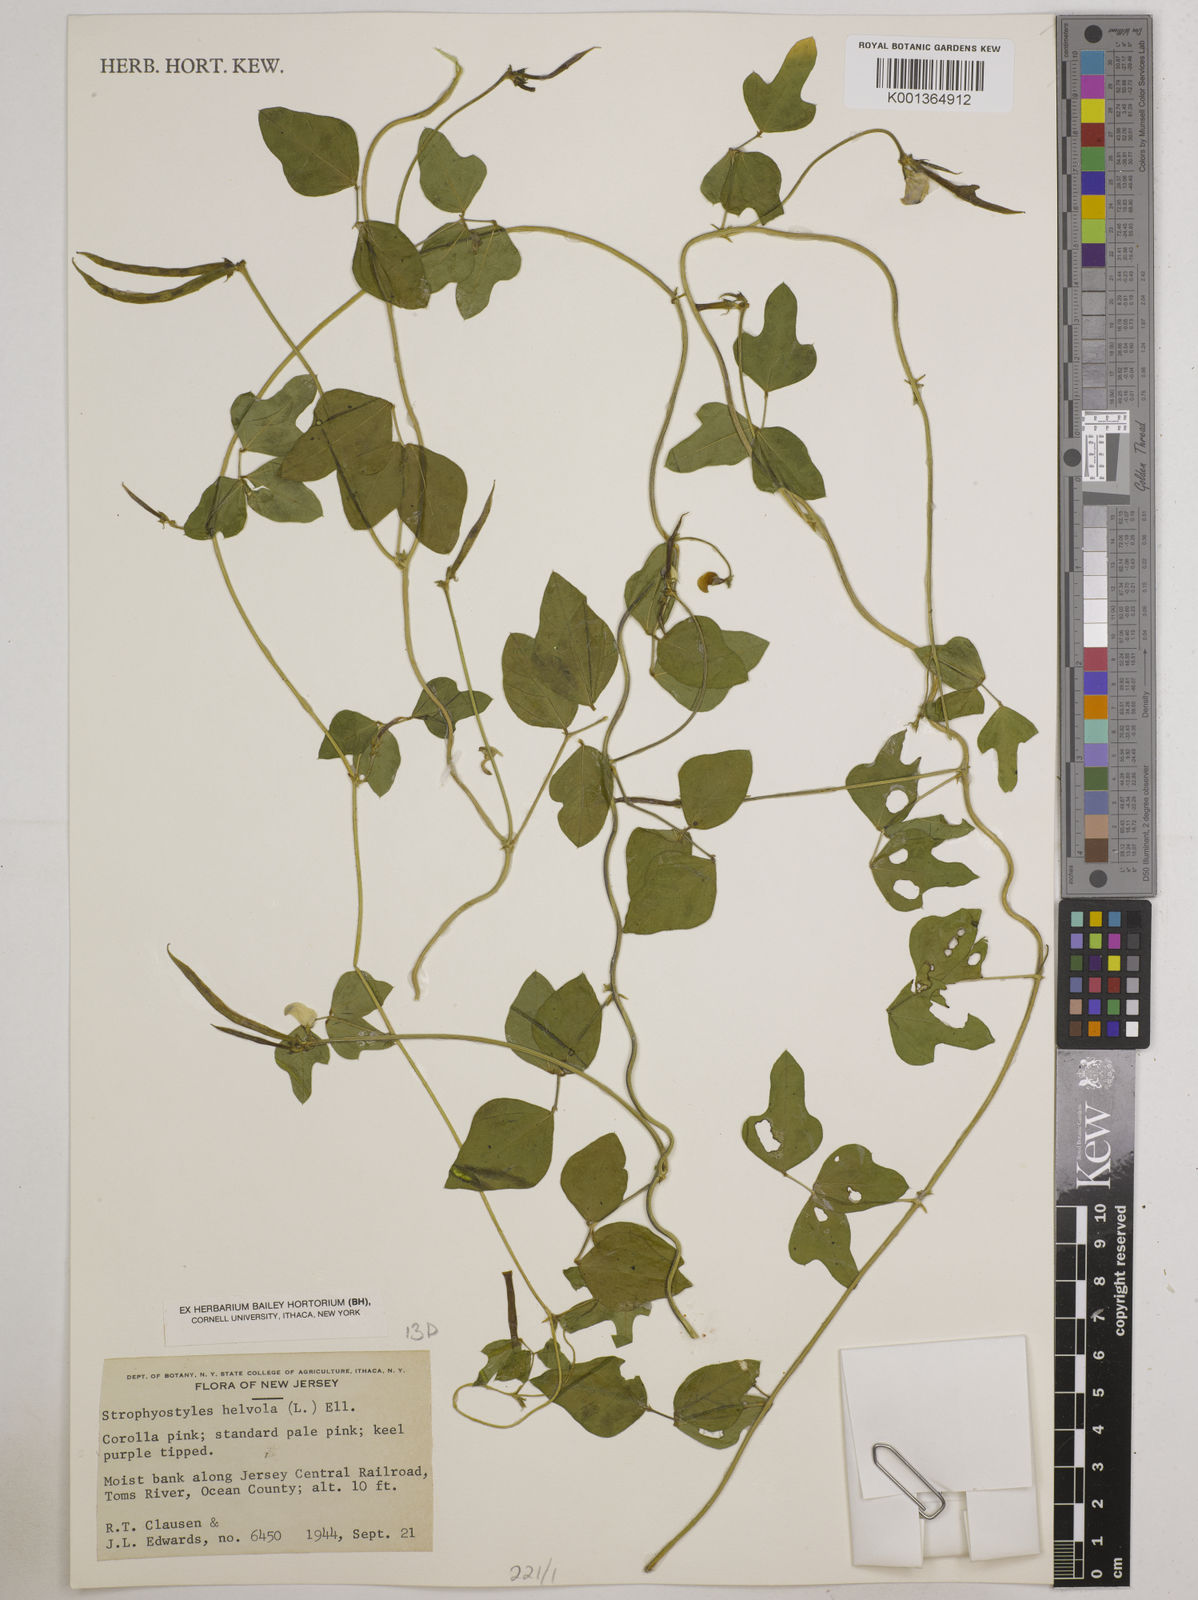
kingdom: Plantae
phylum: Tracheophyta
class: Magnoliopsida
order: Fabales
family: Fabaceae
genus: Strophostyles
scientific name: Strophostyles
